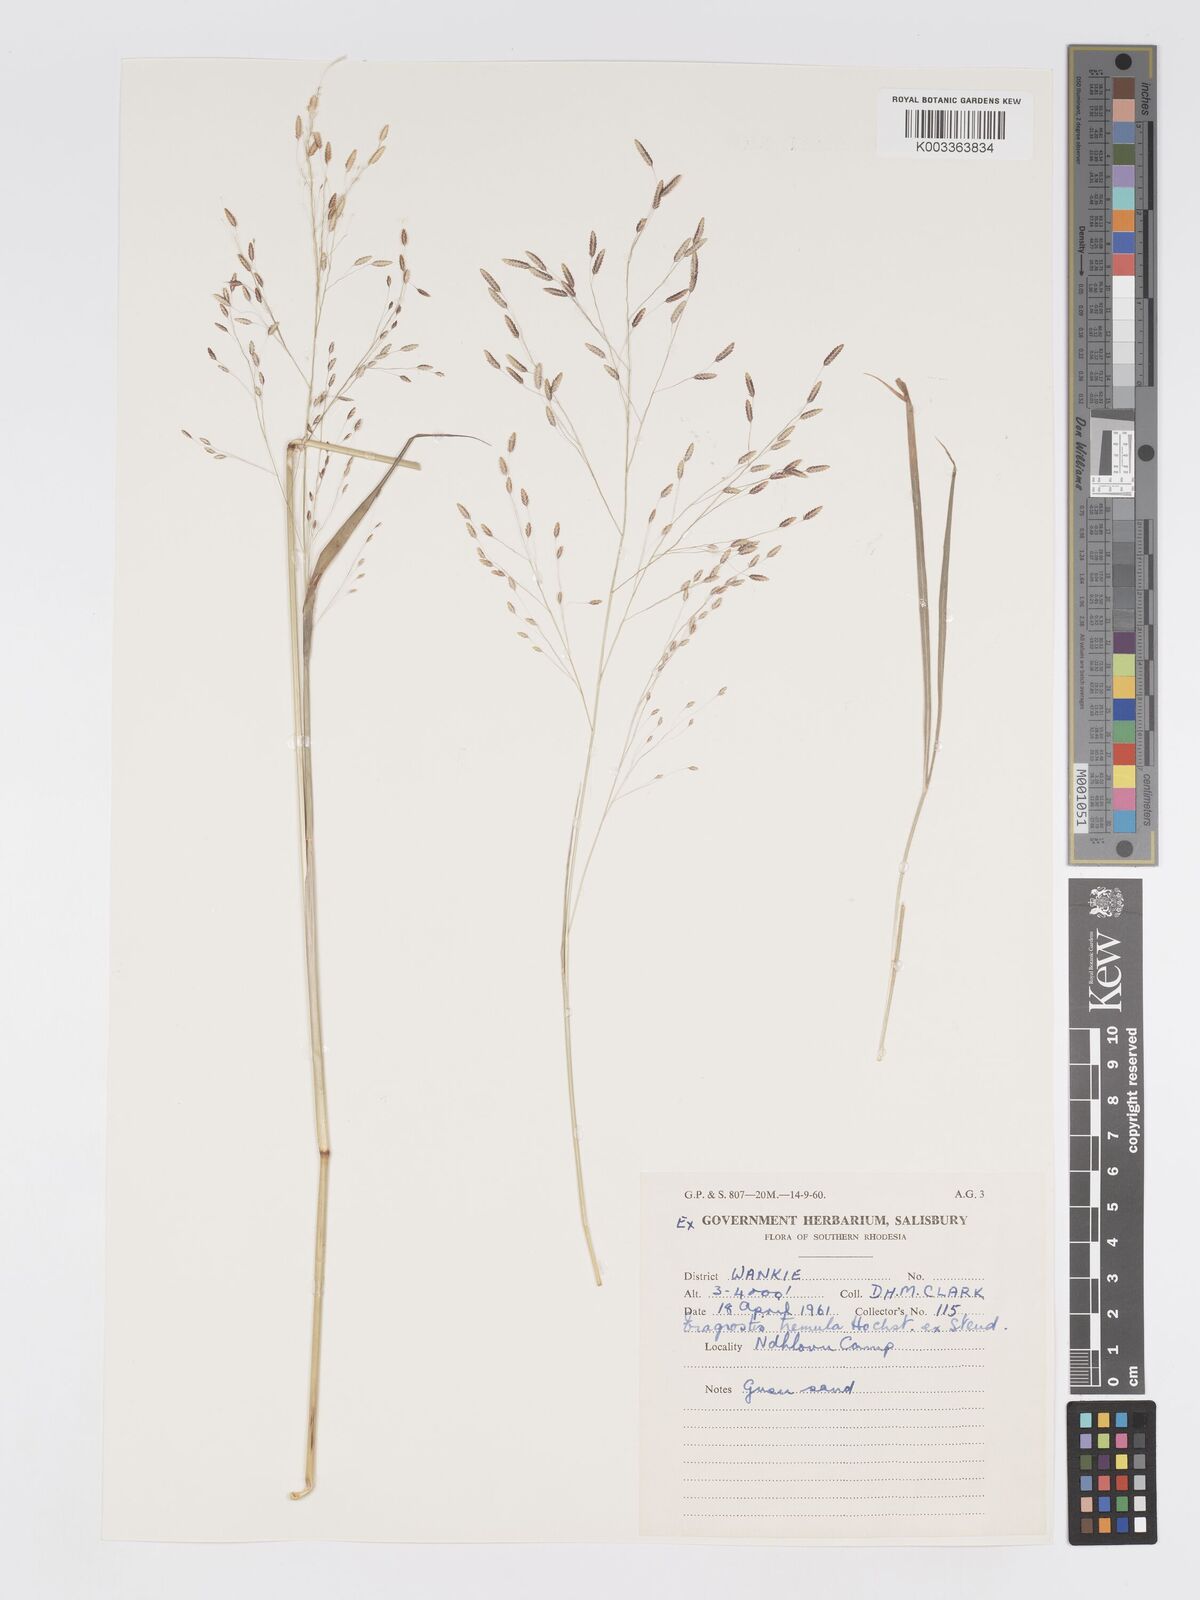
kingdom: Plantae
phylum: Tracheophyta
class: Liliopsida
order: Poales
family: Poaceae
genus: Eragrostis
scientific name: Eragrostis tremula
